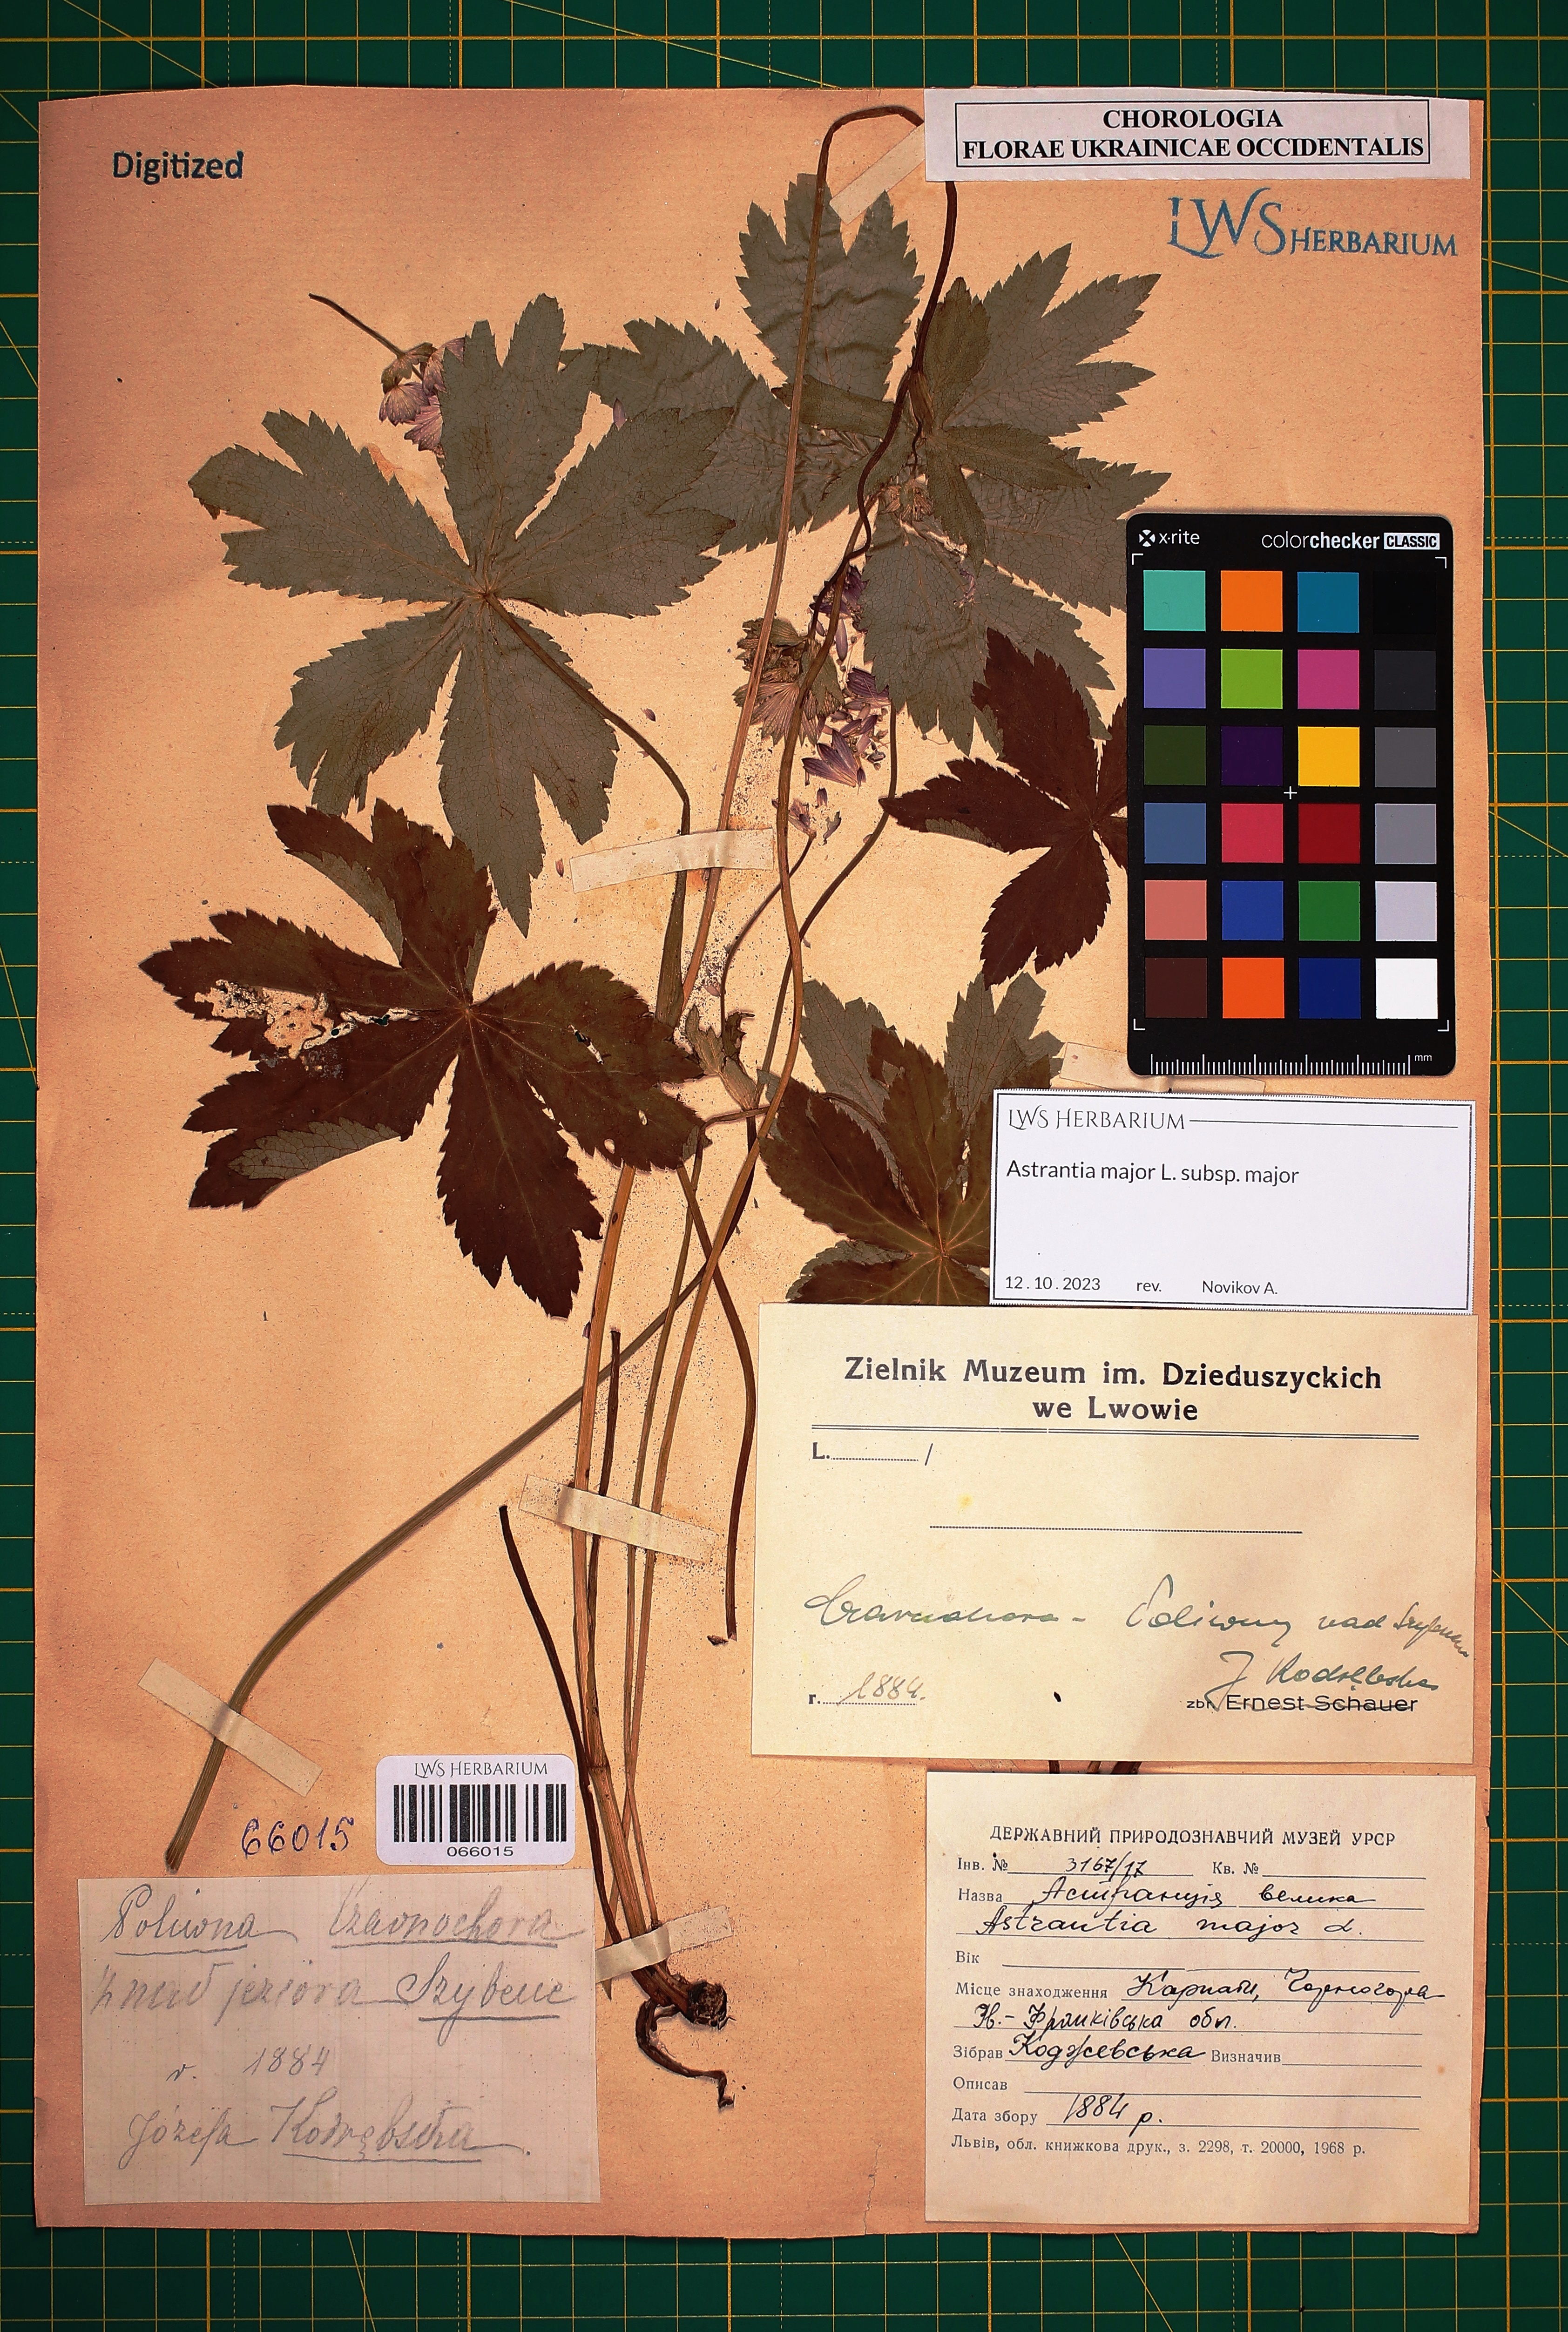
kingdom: Plantae
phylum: Tracheophyta
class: Magnoliopsida
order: Apiales
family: Apiaceae
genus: Astrantia
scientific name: Astrantia major
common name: Greater masterwort
